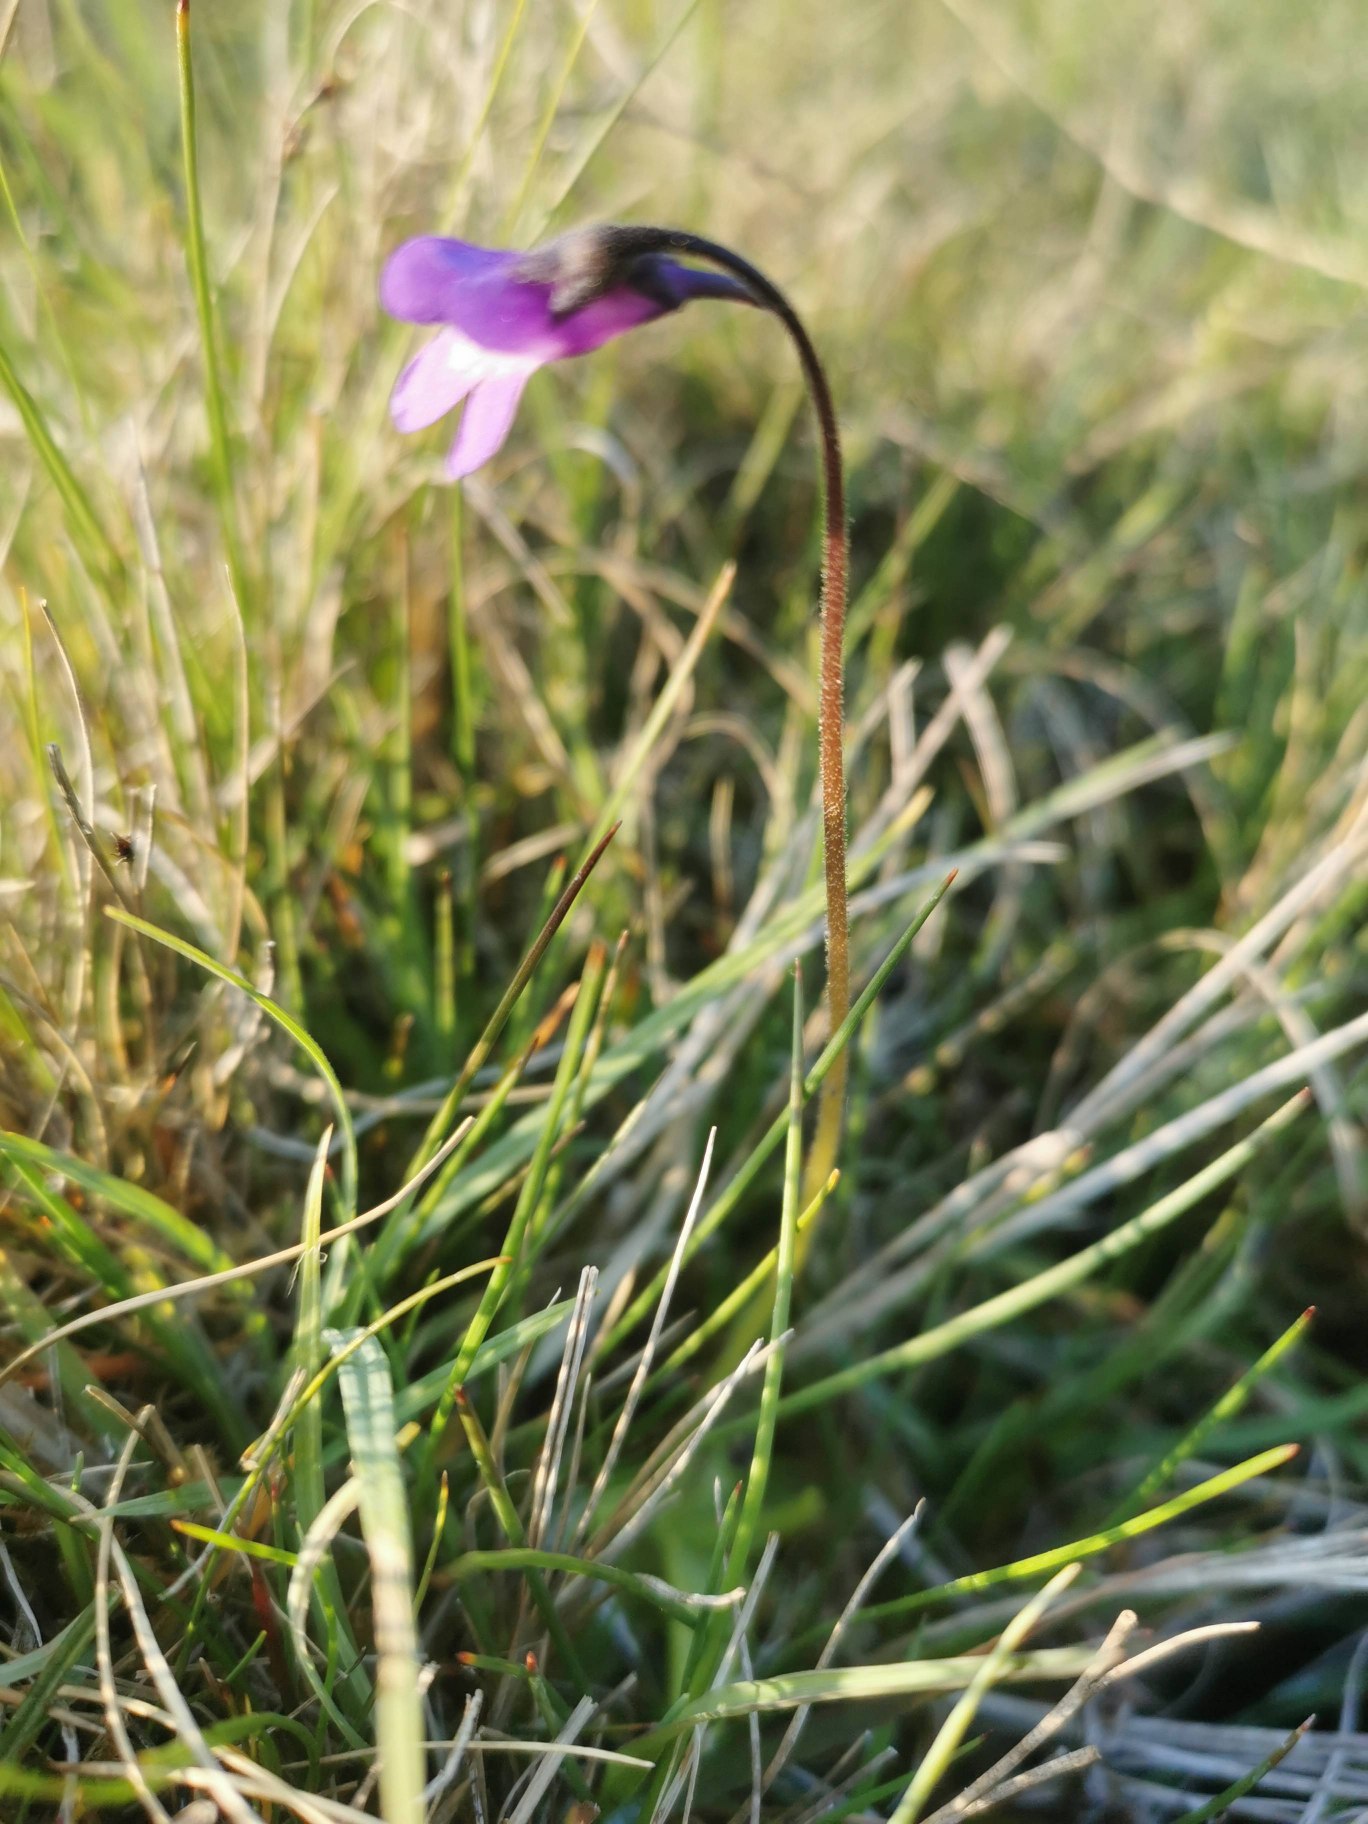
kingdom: Plantae
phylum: Tracheophyta
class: Magnoliopsida
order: Lamiales
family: Lentibulariaceae
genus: Pinguicula
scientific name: Pinguicula vulgaris
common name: Vibefedt
